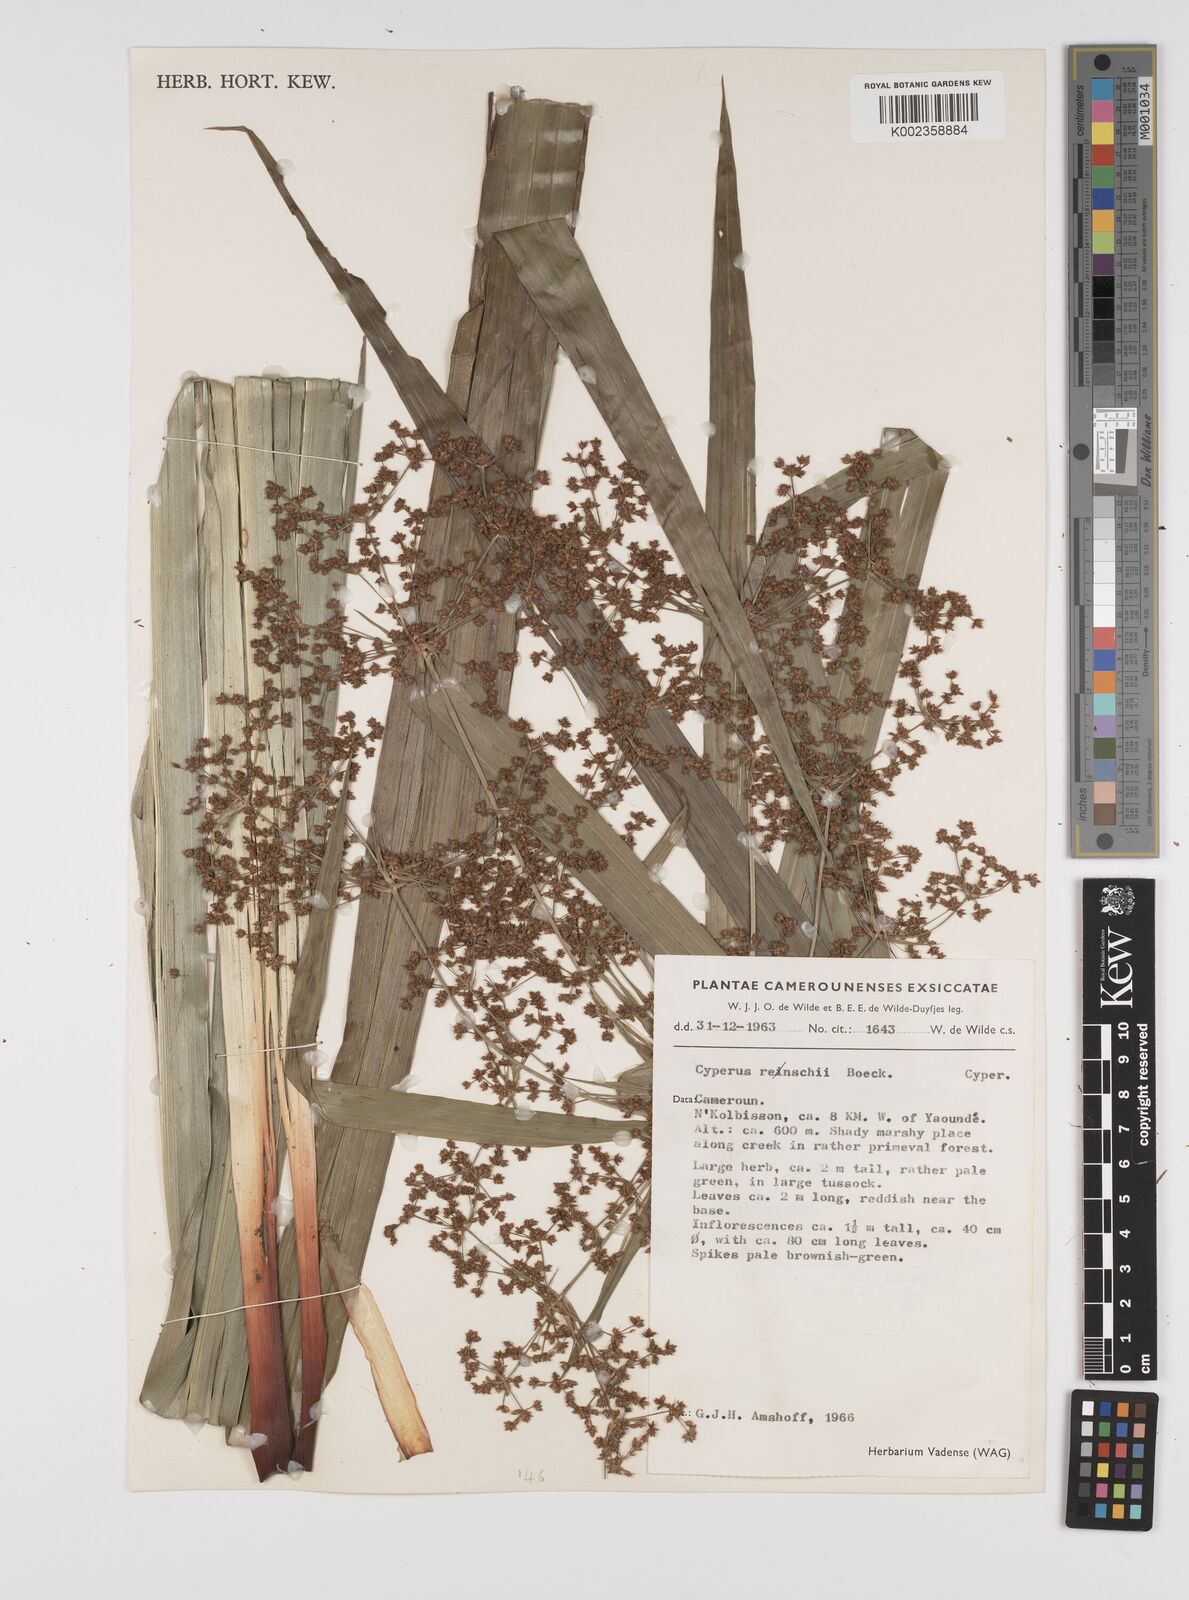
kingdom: Plantae
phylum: Tracheophyta
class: Liliopsida
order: Poales
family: Cyperaceae
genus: Cyperus
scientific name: Cyperus renschii
